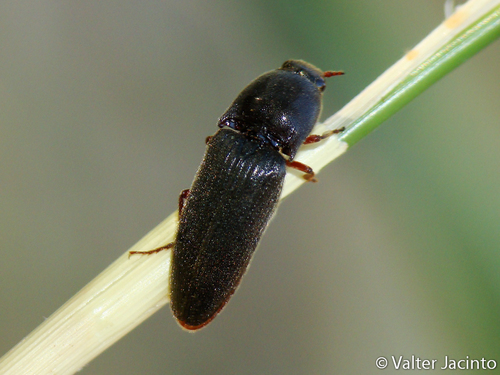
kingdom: Animalia
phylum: Arthropoda
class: Insecta
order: Coleoptera
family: Elateridae
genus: Melanotus
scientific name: Melanotus
